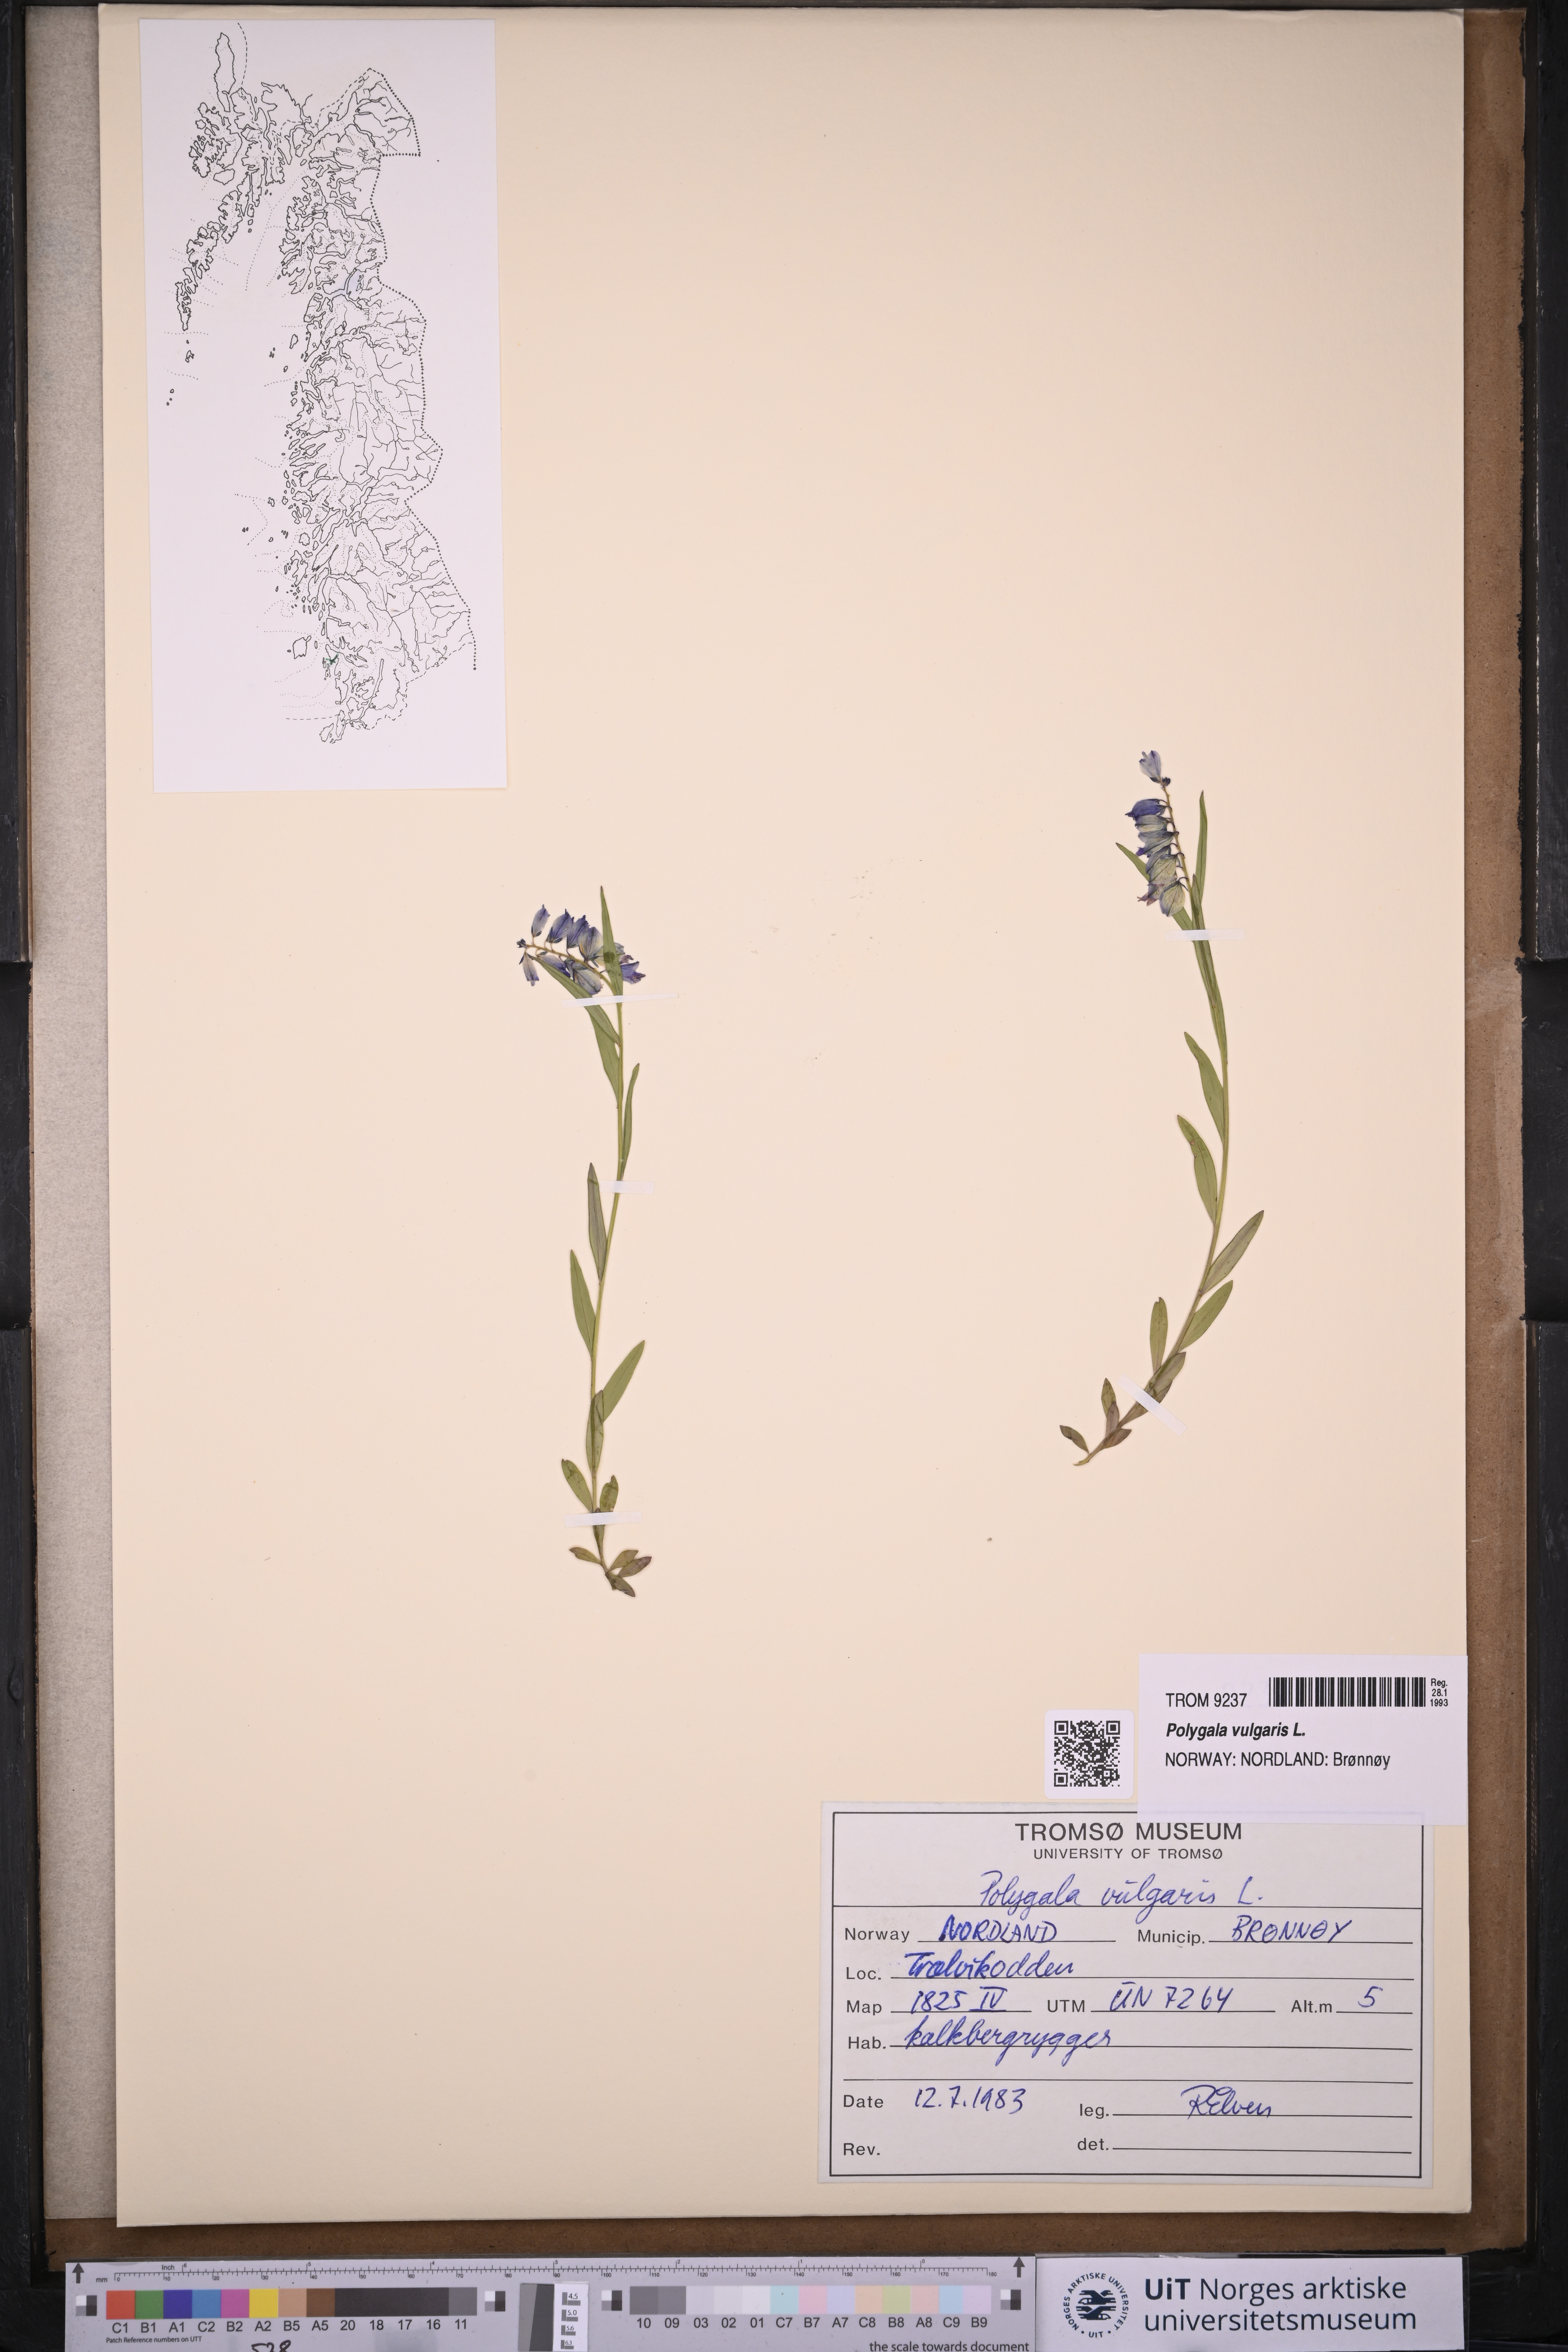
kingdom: Plantae
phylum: Tracheophyta
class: Magnoliopsida
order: Fabales
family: Polygalaceae
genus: Polygala
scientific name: Polygala vulgaris
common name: Common milkwort
